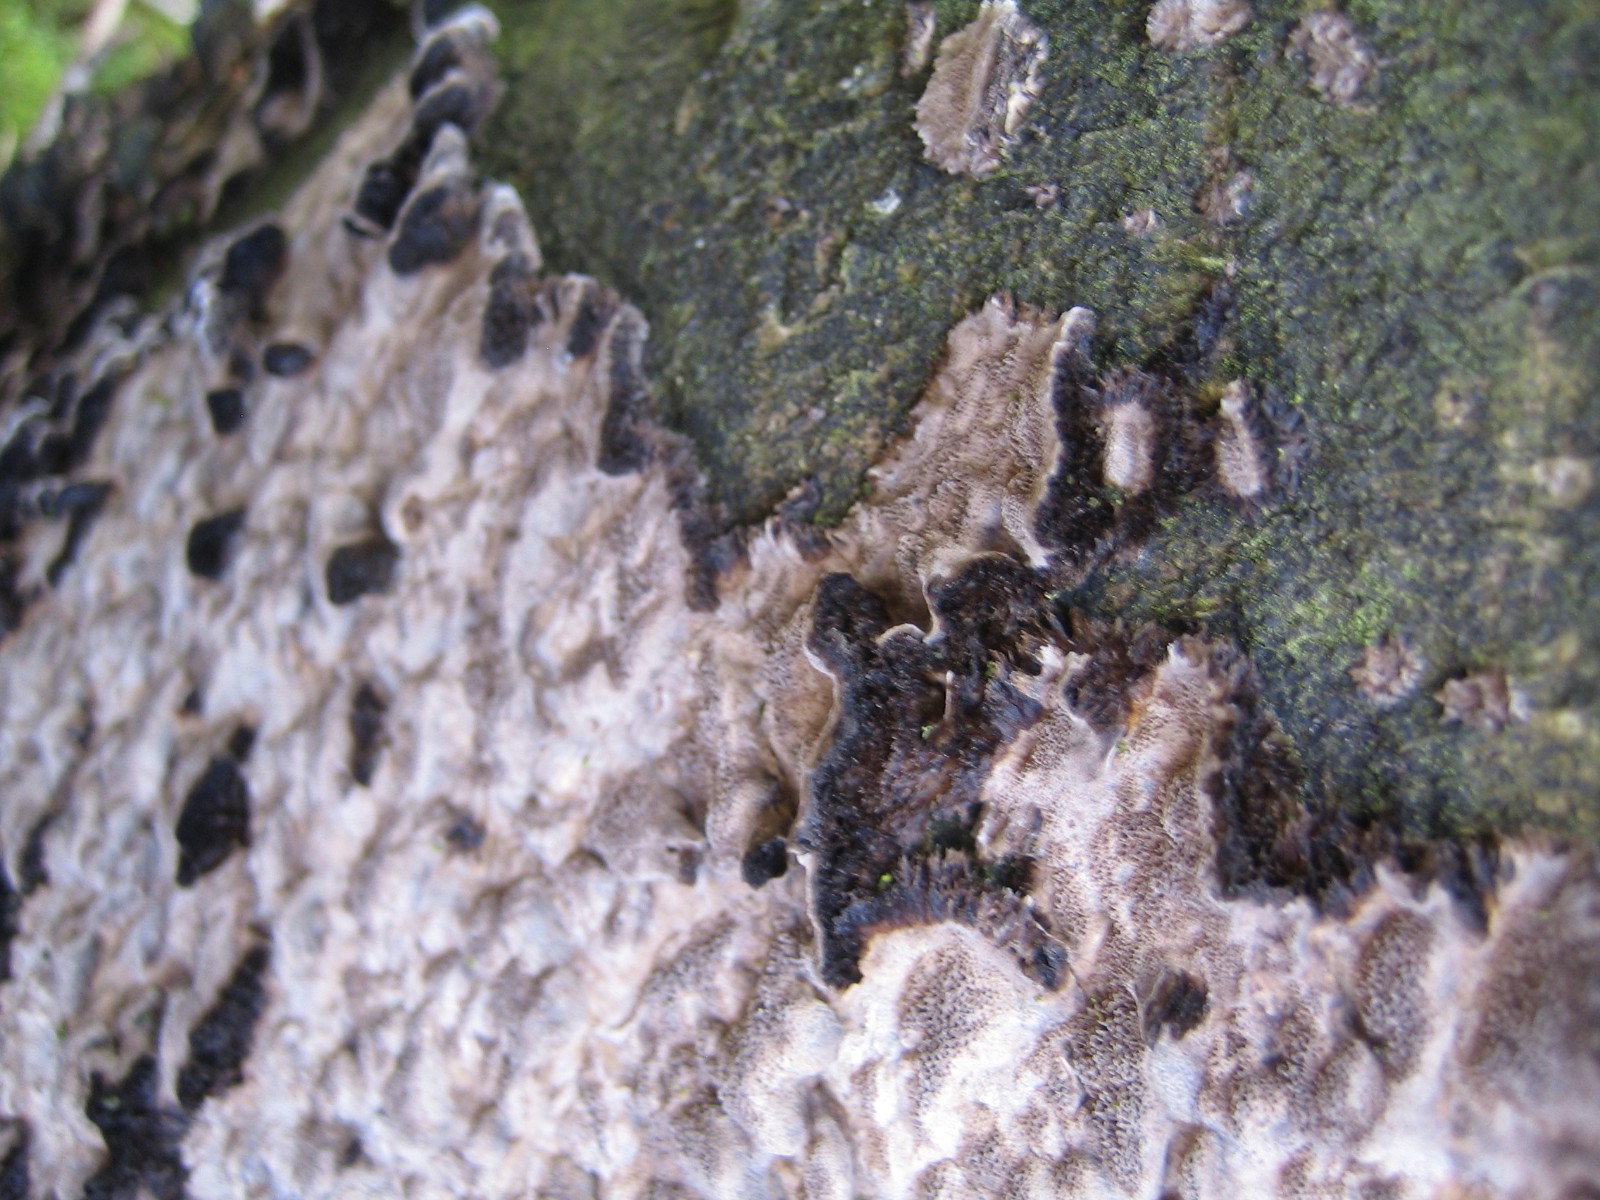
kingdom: Fungi
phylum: Basidiomycota
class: Agaricomycetes
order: Polyporales
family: Phanerochaetaceae
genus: Bjerkandera
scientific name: Bjerkandera adusta
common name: sveden sodporesvamp
